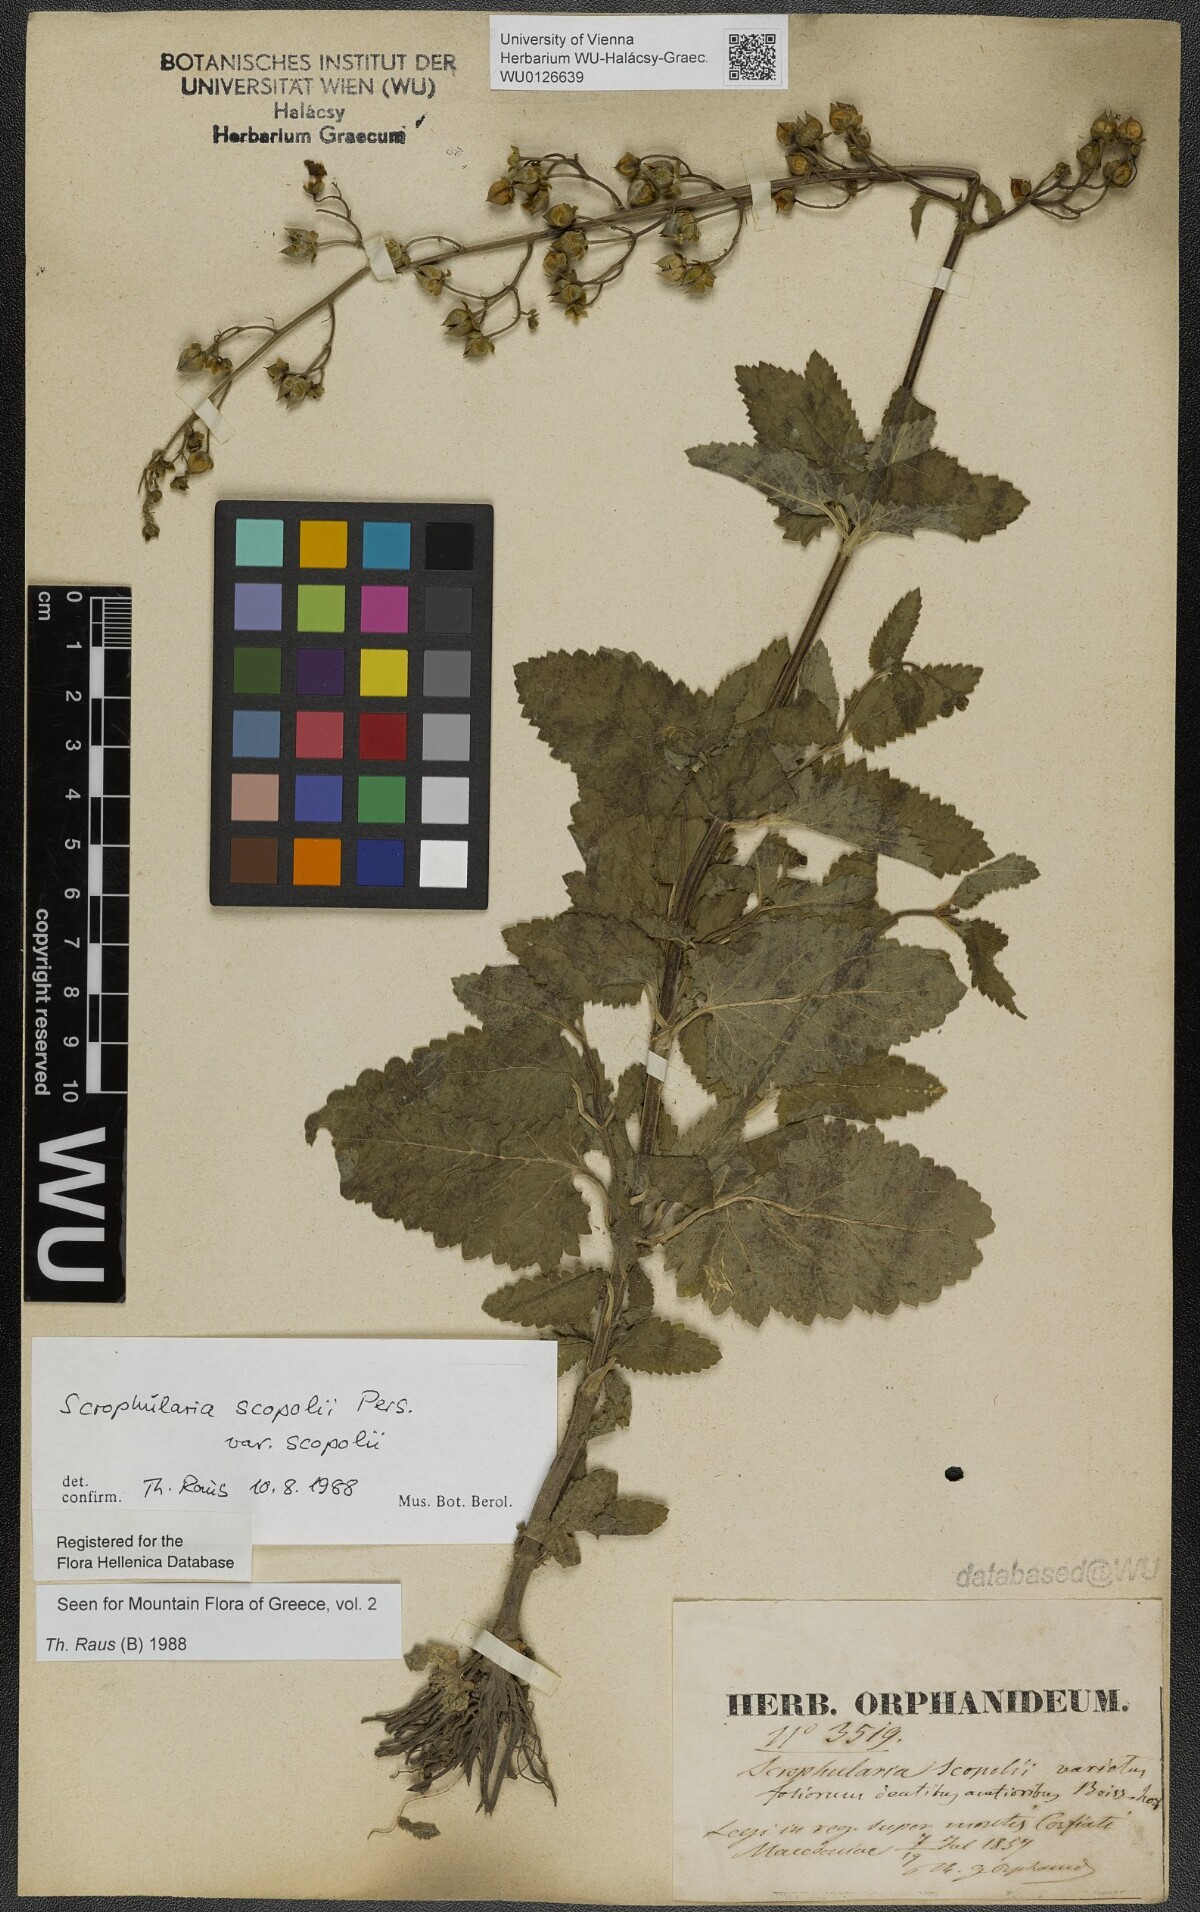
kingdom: Plantae
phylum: Tracheophyta
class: Magnoliopsida
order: Lamiales
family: Scrophulariaceae
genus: Scrophularia
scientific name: Scrophularia scopolii
